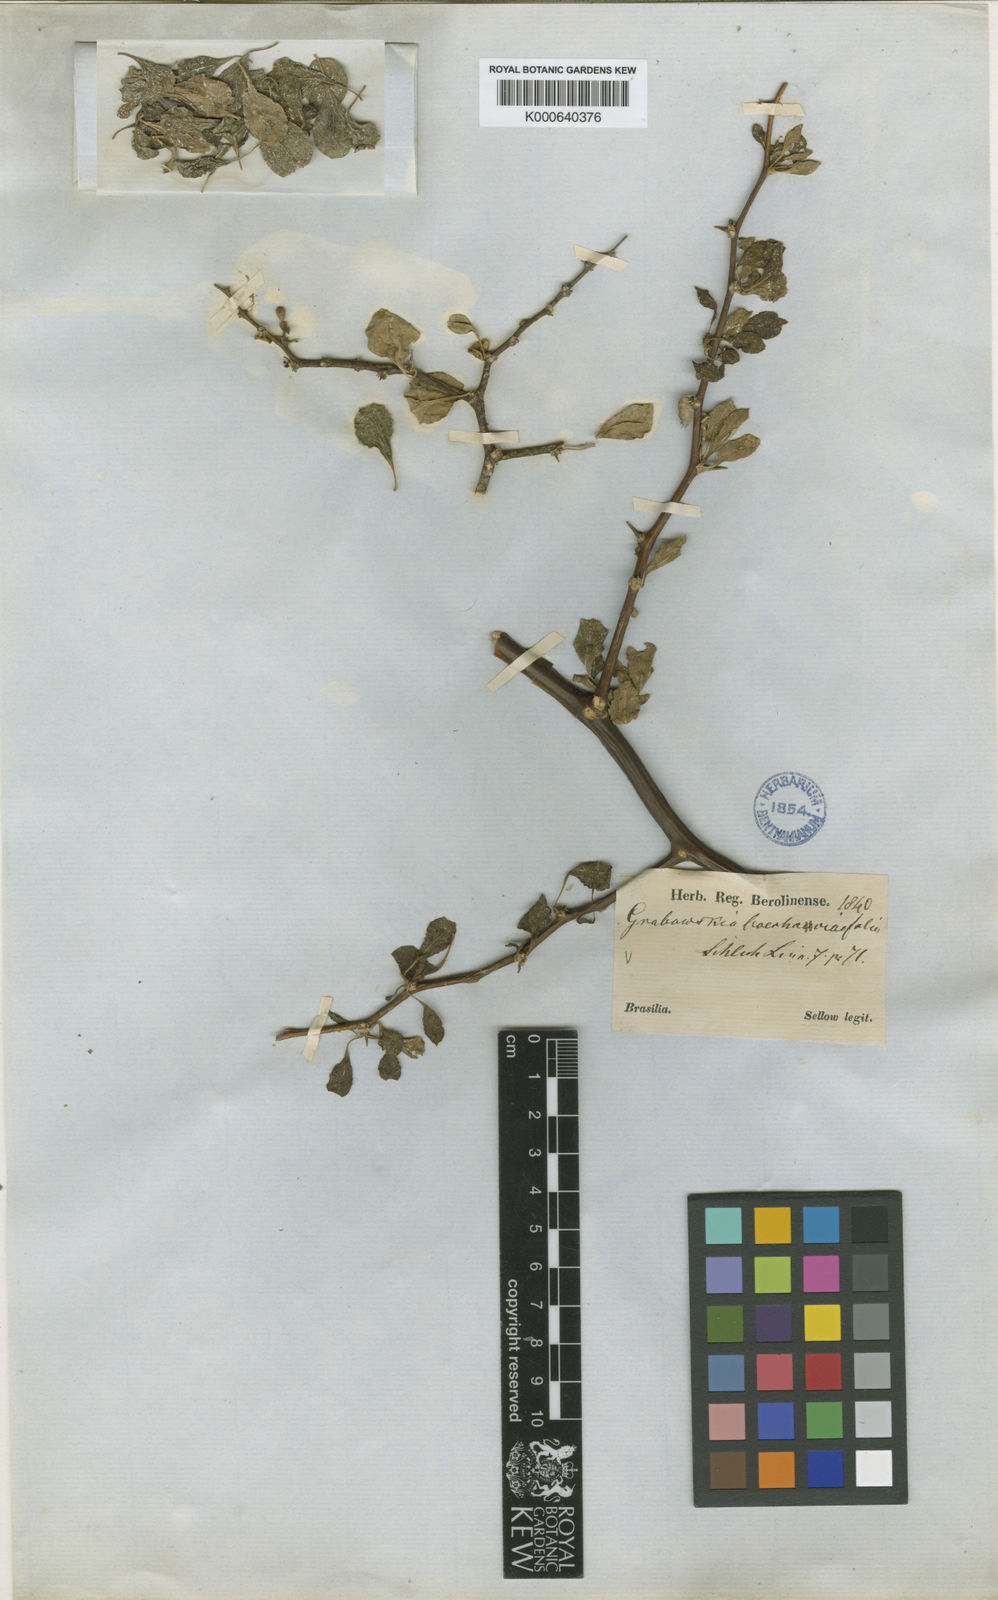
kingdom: Plantae
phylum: Tracheophyta
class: Magnoliopsida
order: Solanales
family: Solanaceae
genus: Lycium
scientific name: Lycium boerhaaviifolium
